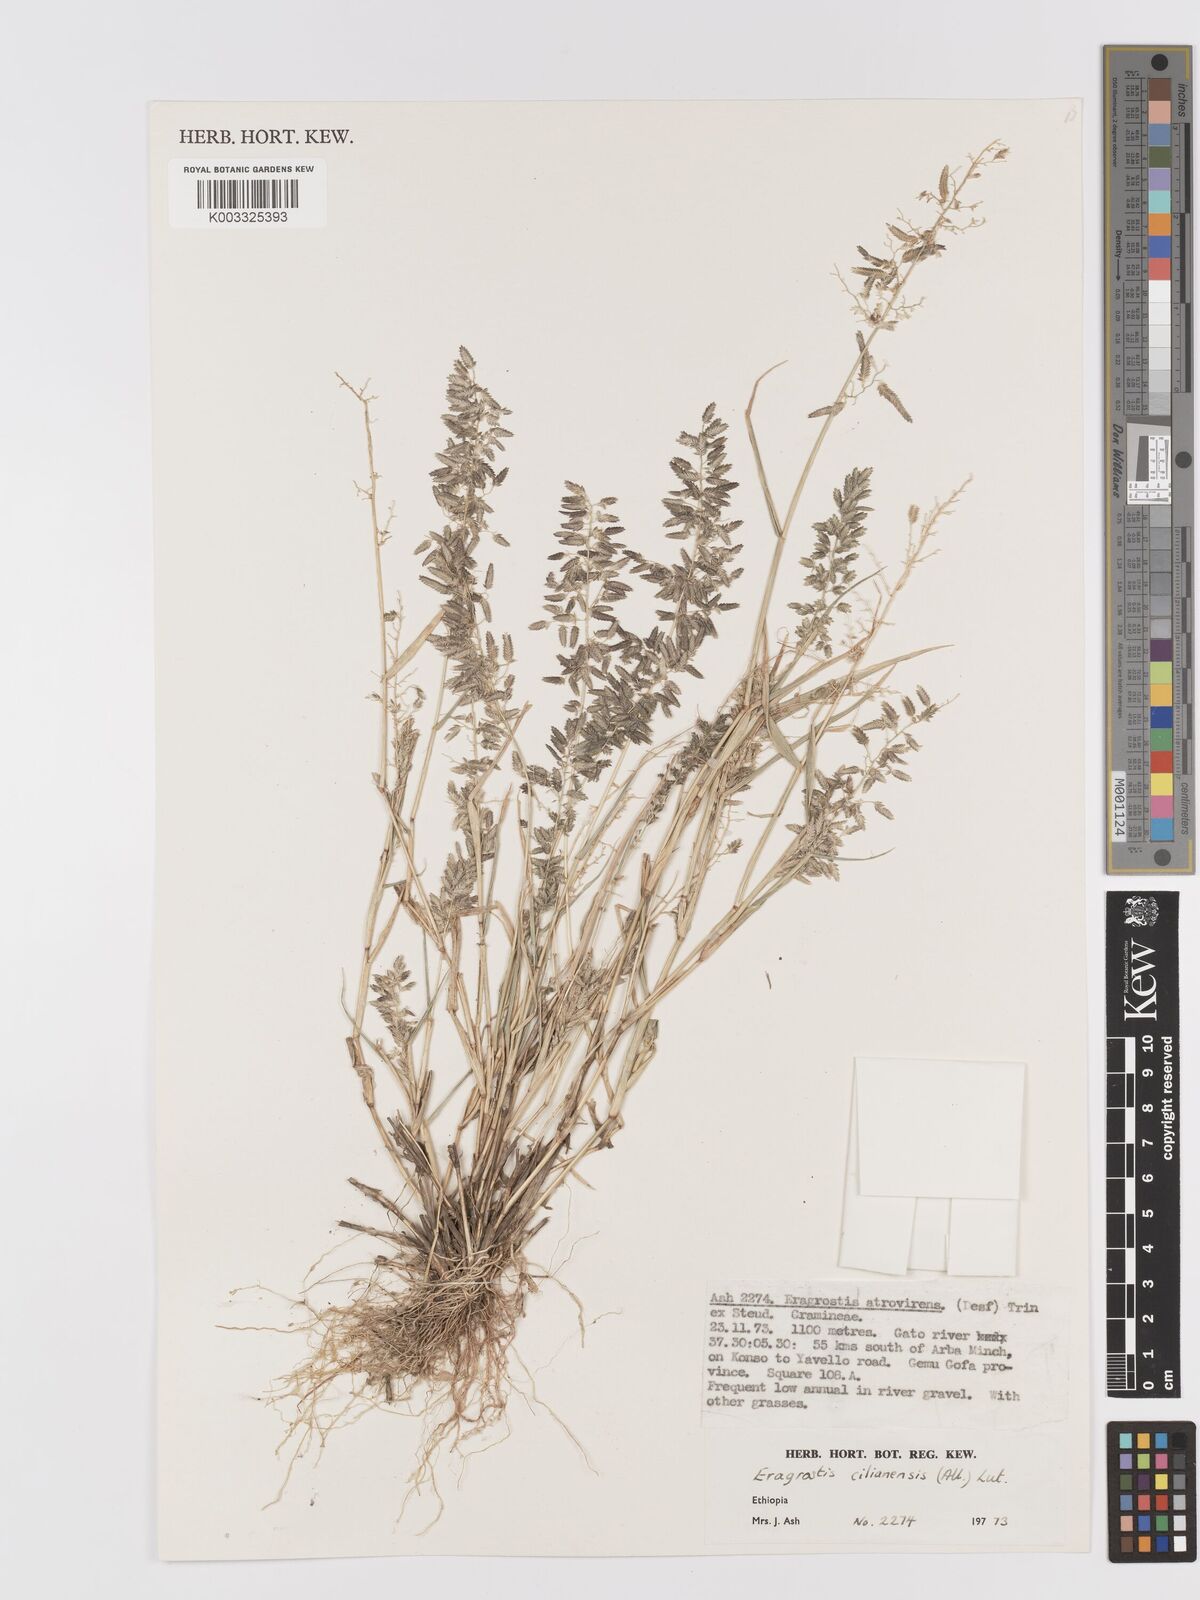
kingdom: Plantae
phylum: Tracheophyta
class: Liliopsida
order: Poales
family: Poaceae
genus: Eragrostis
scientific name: Eragrostis cilianensis
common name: Stinkgrass
